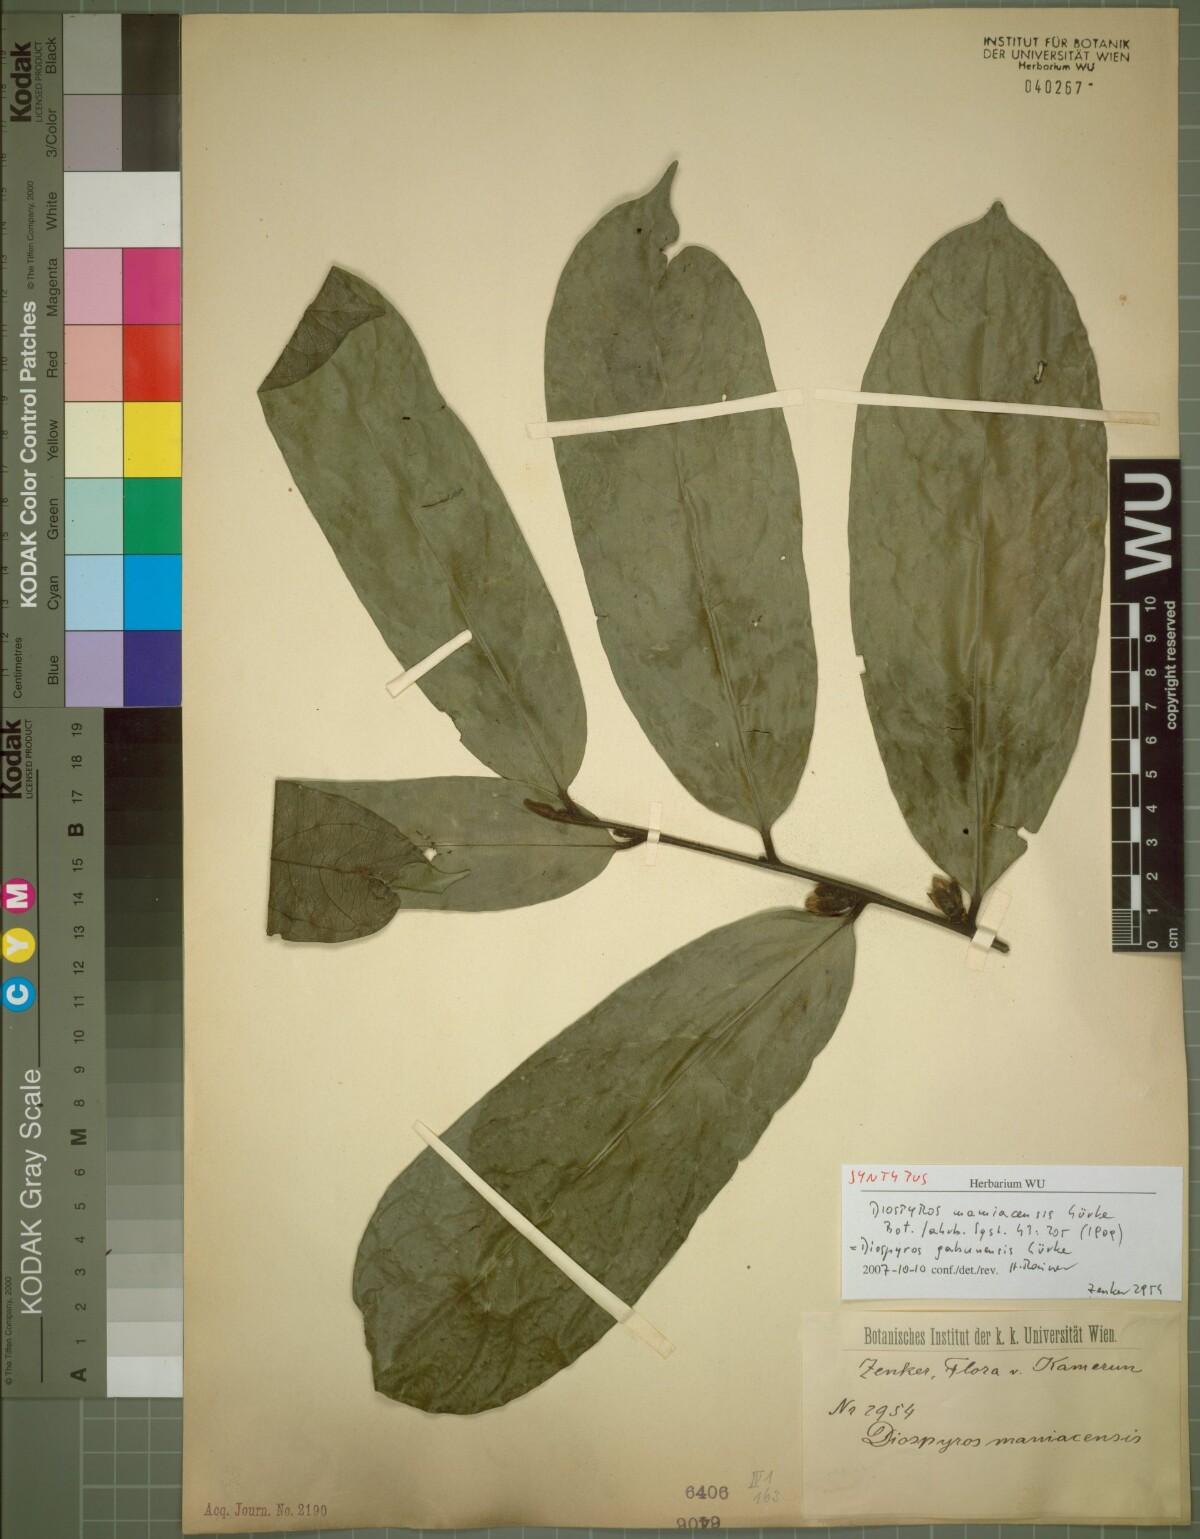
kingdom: Plantae
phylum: Tracheophyta
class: Magnoliopsida
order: Ericales
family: Ebenaceae
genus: Diospyros
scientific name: Diospyros gabunensis
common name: Flint bark tree
